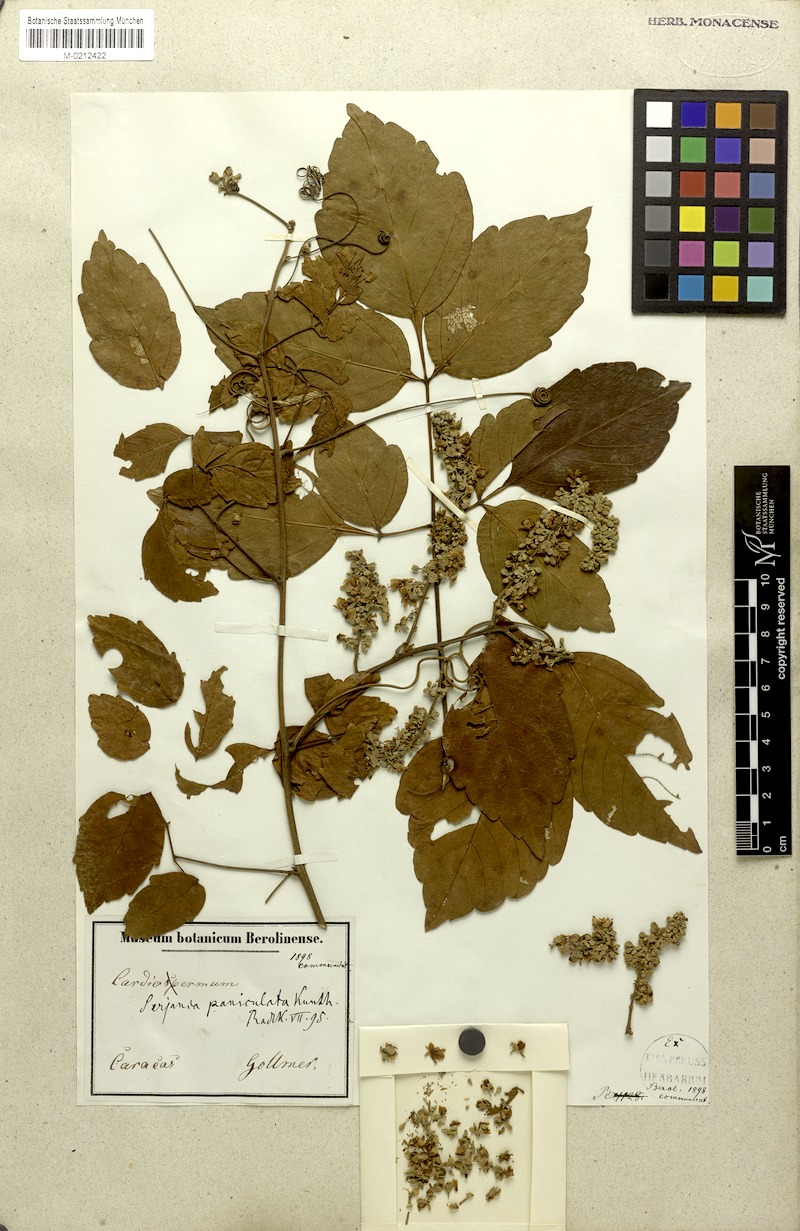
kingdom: Plantae
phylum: Tracheophyta
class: Magnoliopsida
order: Sapindales
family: Sapindaceae
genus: Serjania
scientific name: Serjania paniculata
